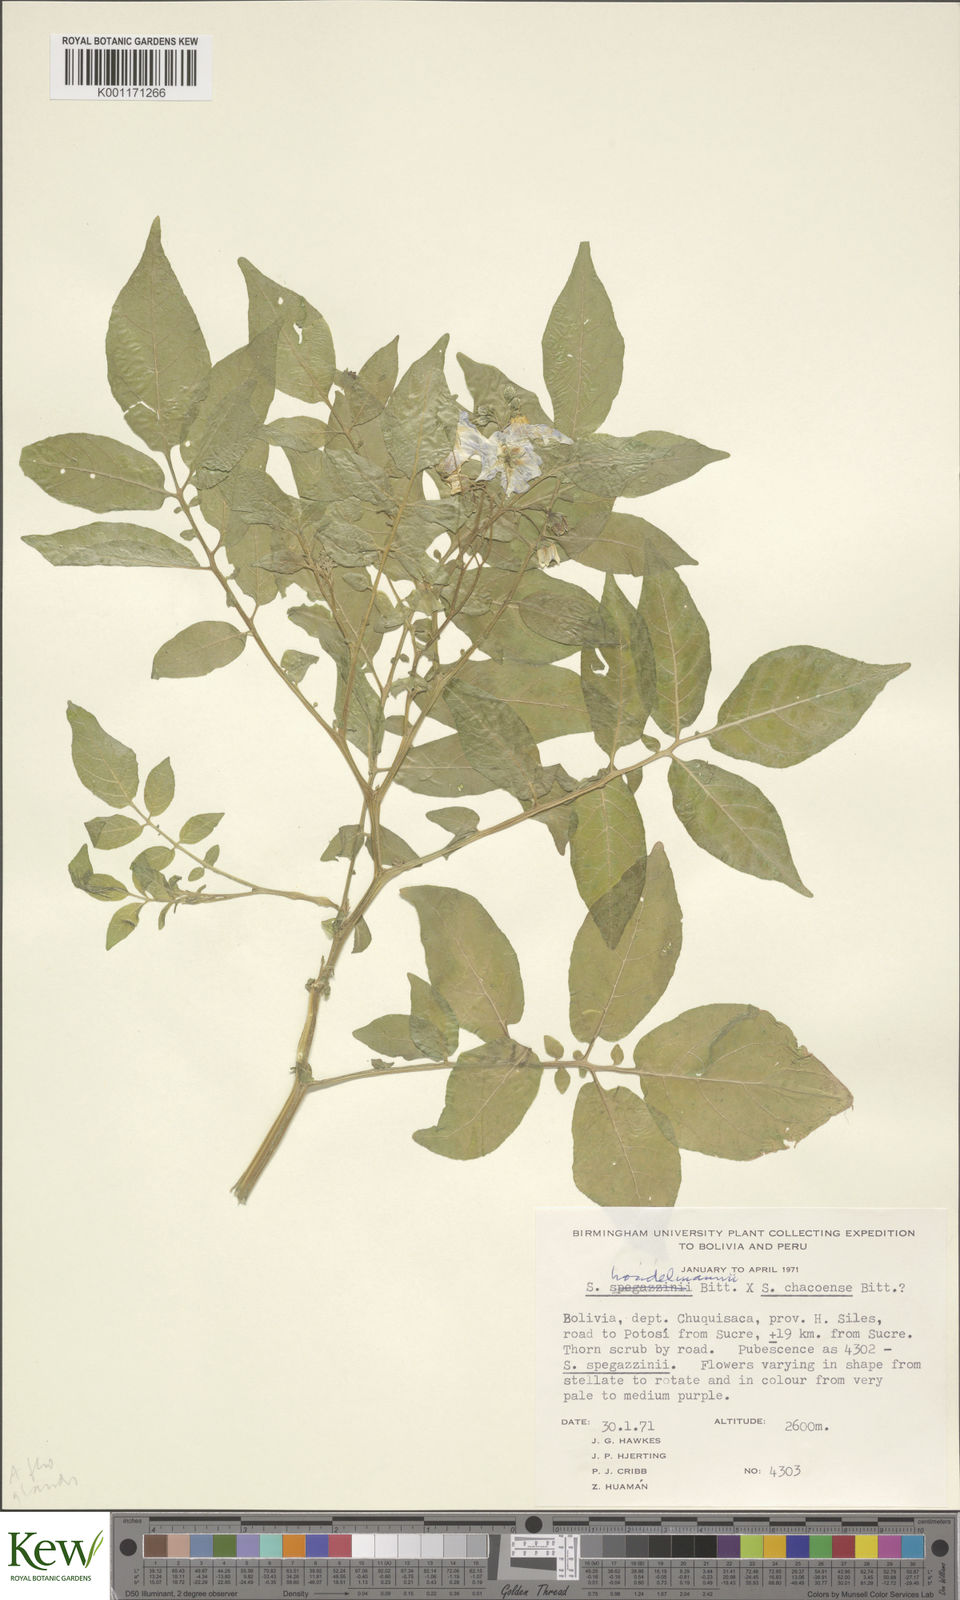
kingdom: Plantae
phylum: Tracheophyta
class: Magnoliopsida
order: Solanales
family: Solanaceae
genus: Solanum
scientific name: Solanum brevicaule
